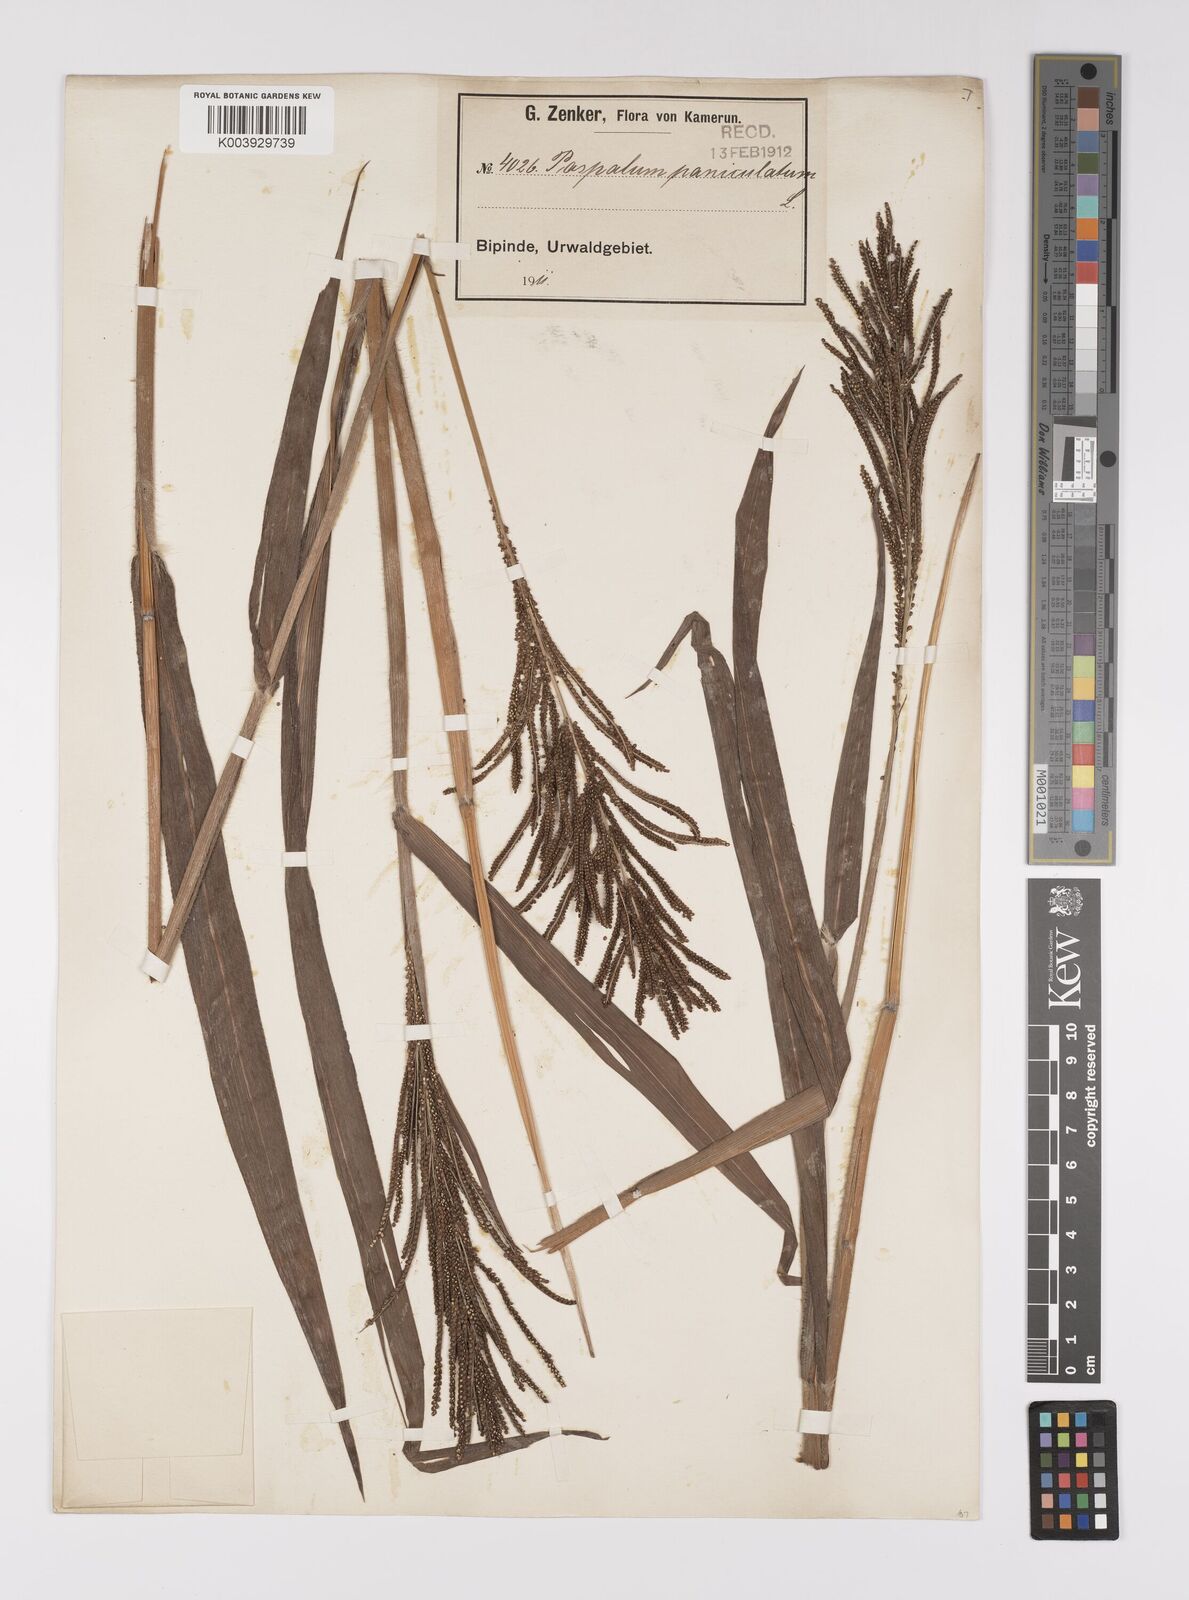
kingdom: Plantae
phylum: Tracheophyta
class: Liliopsida
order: Poales
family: Poaceae
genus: Paspalum
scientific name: Paspalum paniculatum
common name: Arrocillo
